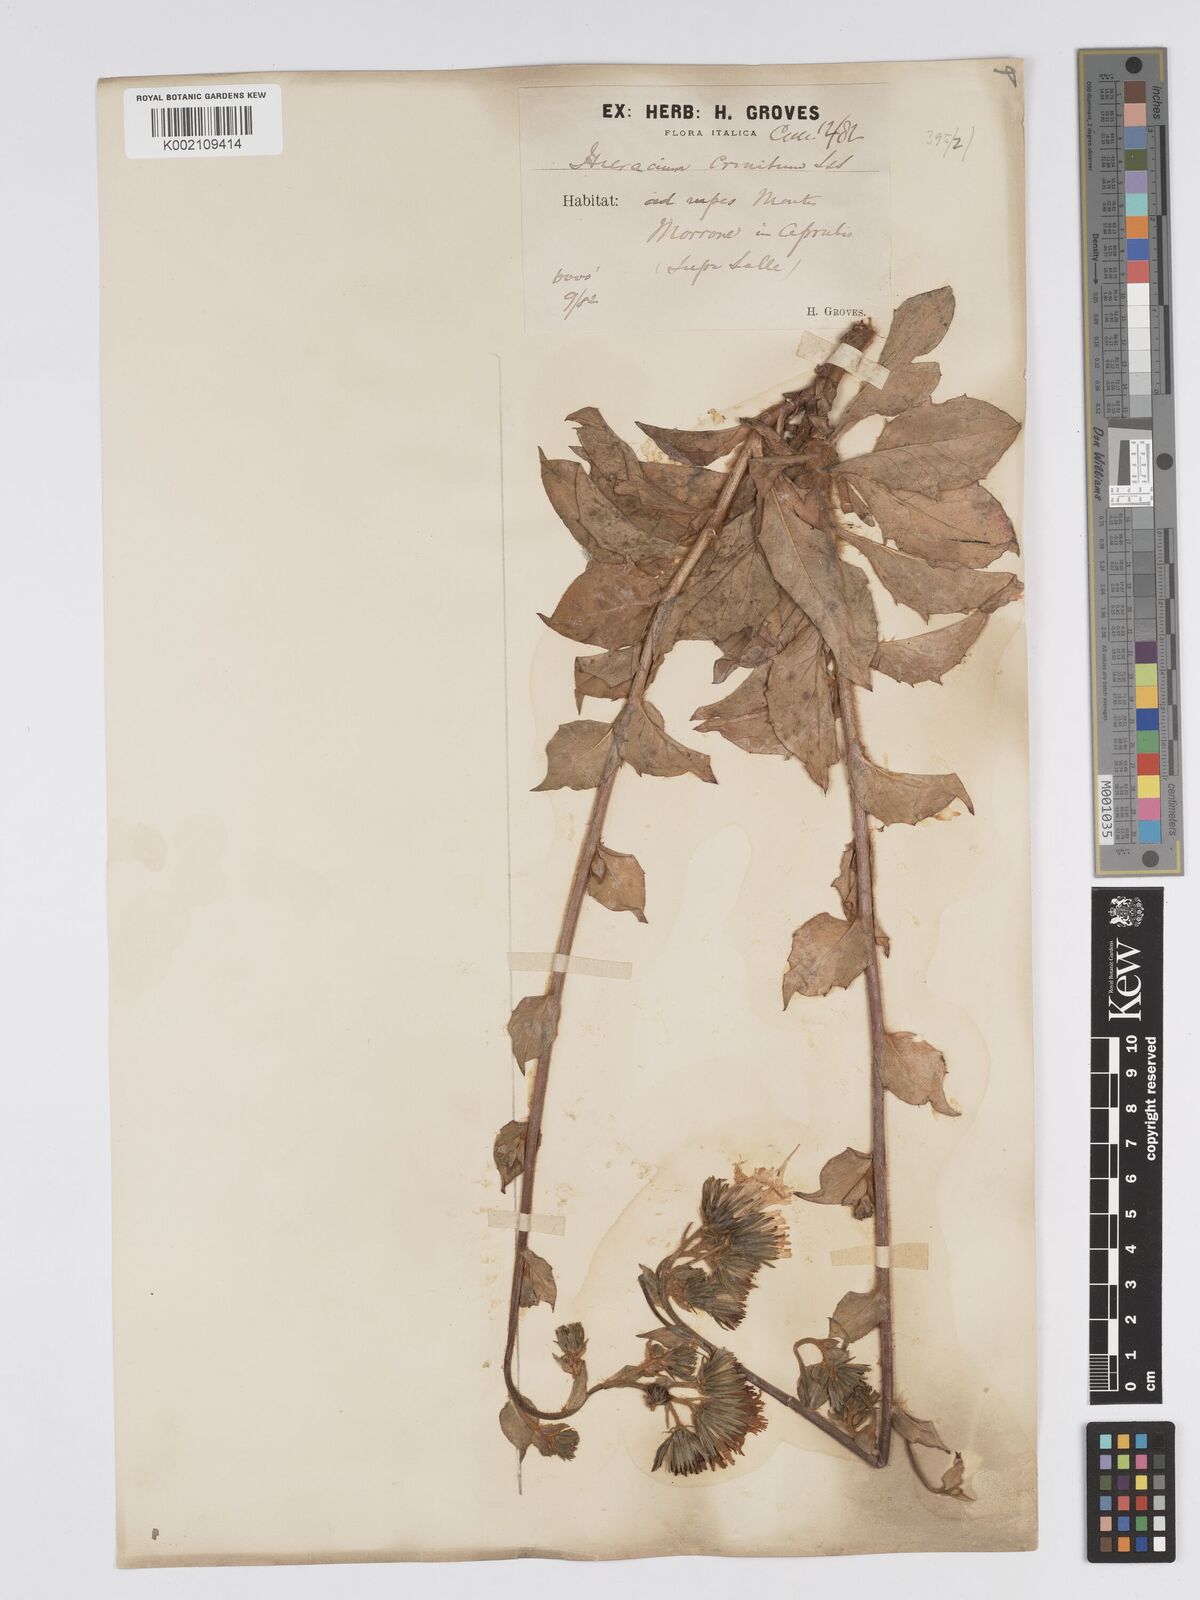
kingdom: Plantae
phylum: Tracheophyta
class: Magnoliopsida
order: Asterales
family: Asteraceae
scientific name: Asteraceae
